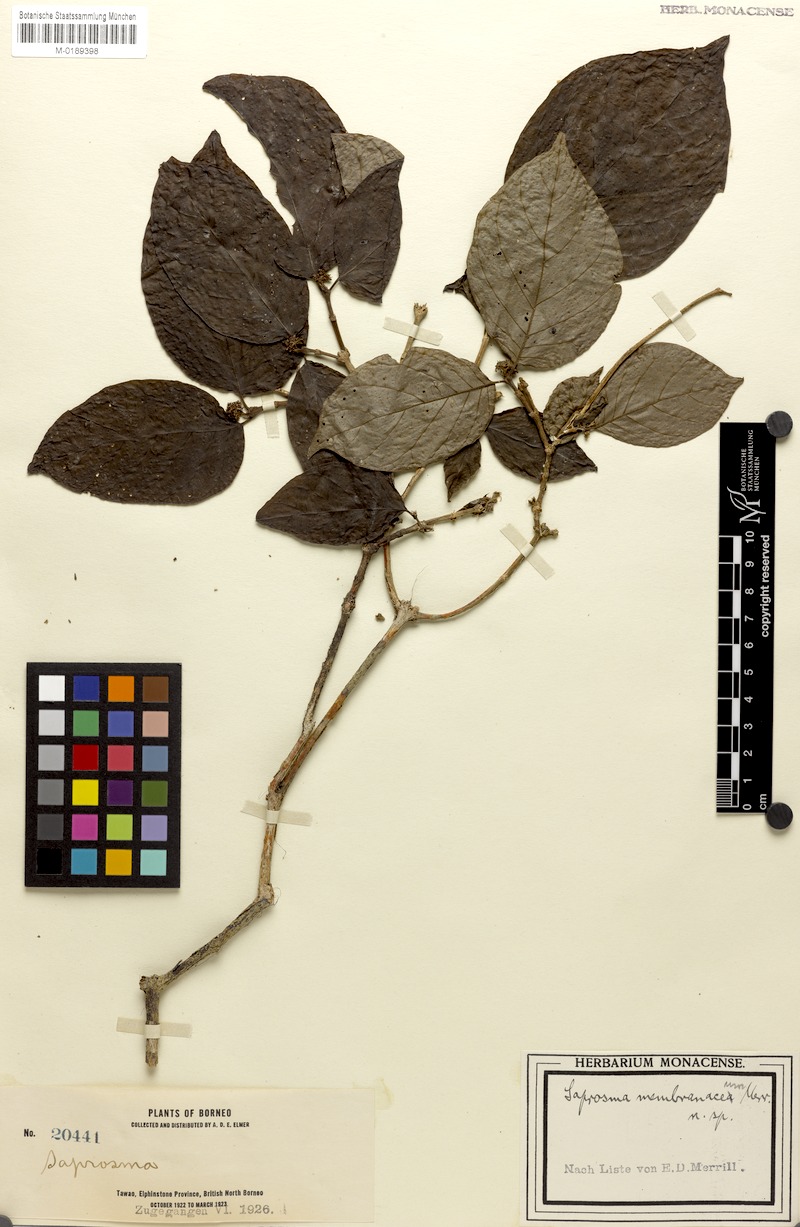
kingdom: Plantae
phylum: Tracheophyta
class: Magnoliopsida
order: Gentianales
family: Rubiaceae
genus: Saprosma
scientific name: Saprosma membranacea
